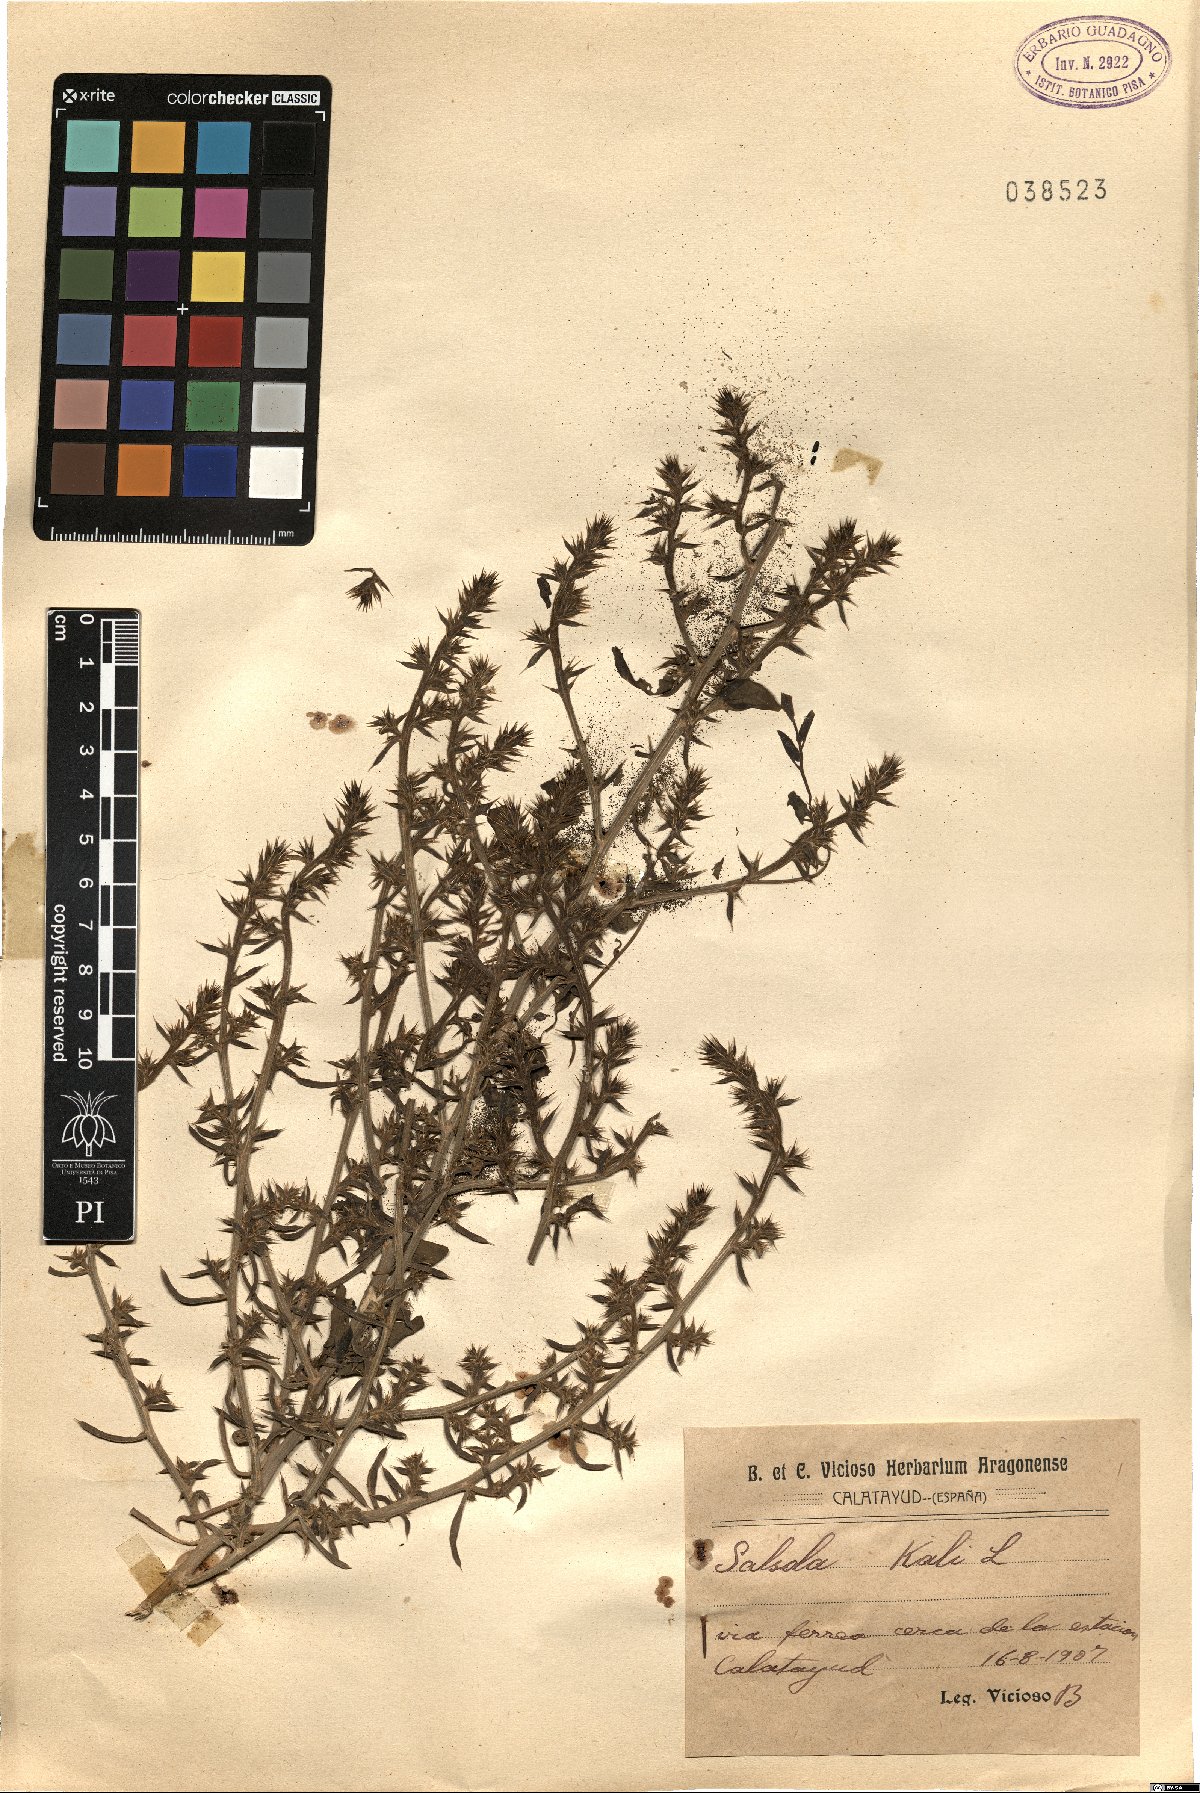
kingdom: Plantae
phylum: Tracheophyta
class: Magnoliopsida
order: Caryophyllales
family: Amaranthaceae
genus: Salsola
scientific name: Salsola kali
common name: Saltwort
